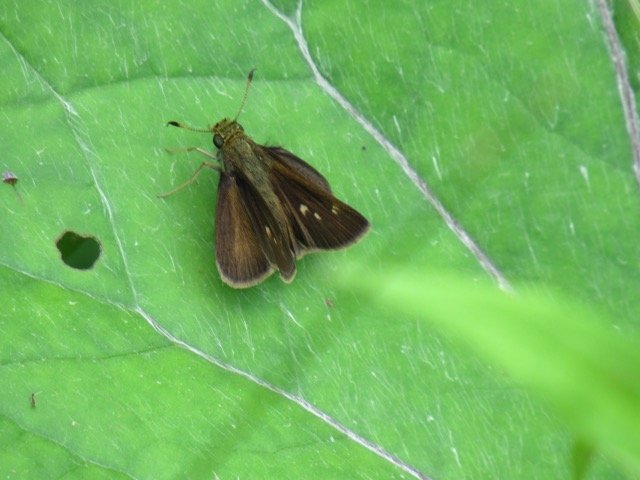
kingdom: Animalia
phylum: Arthropoda
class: Insecta
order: Lepidoptera
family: Hesperiidae
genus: Polites
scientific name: Polites egeremet
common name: Northern Broken-Dash
